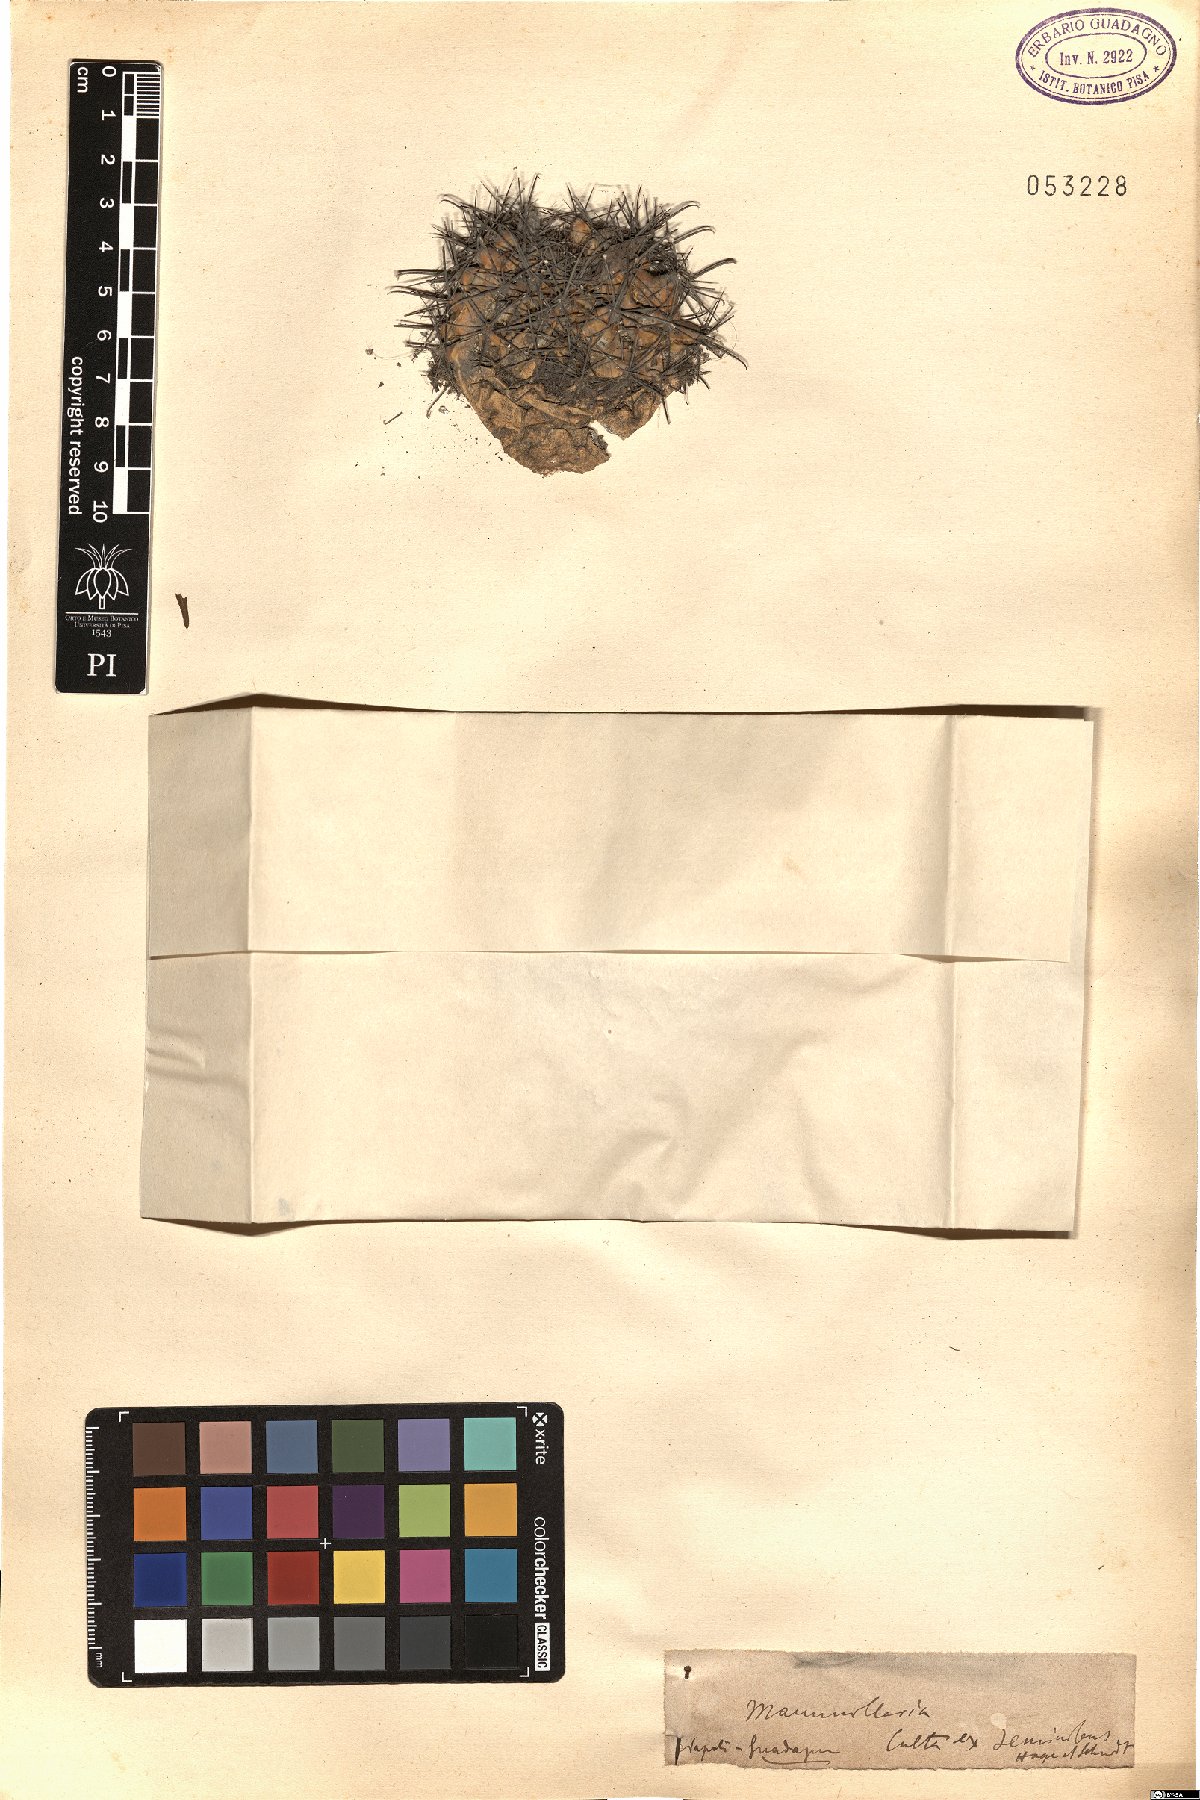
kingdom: Plantae
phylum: Tracheophyta
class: Magnoliopsida
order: Caryophyllales
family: Cactaceae
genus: Mammillaria
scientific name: Mammillaria
